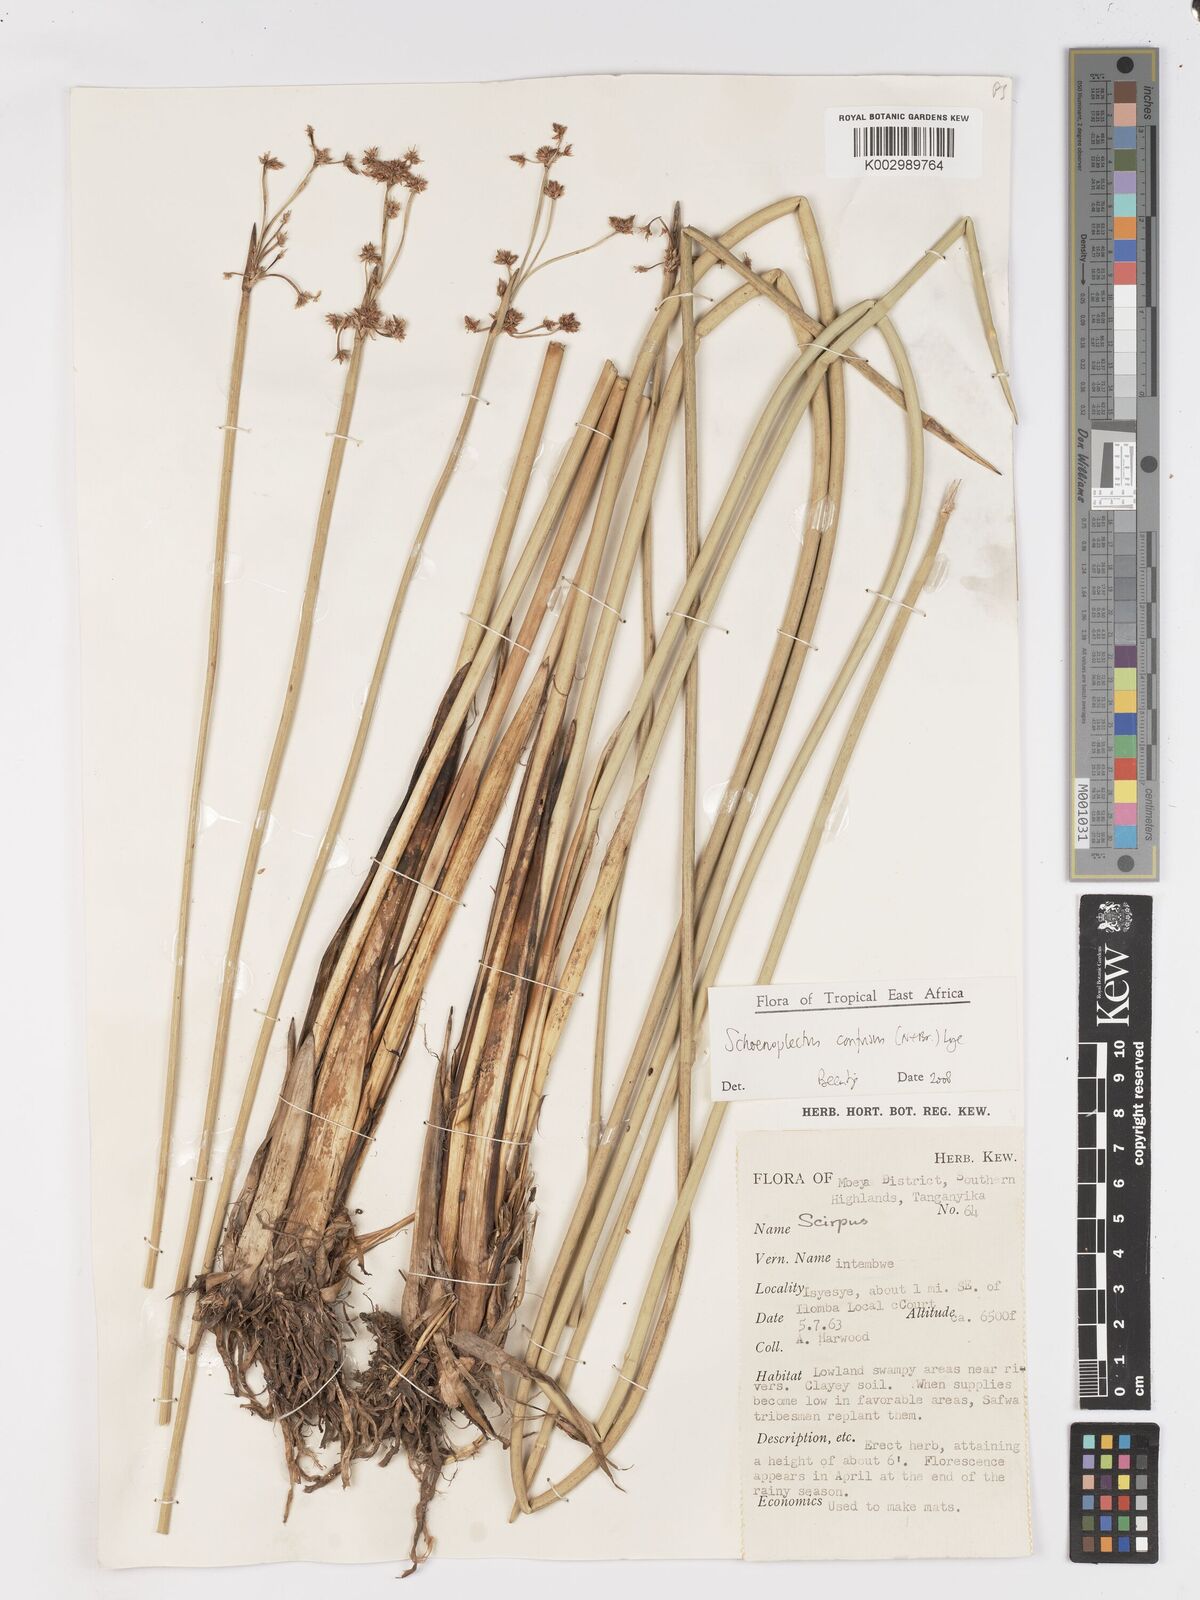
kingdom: Plantae
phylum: Tracheophyta
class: Liliopsida
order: Poales
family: Cyperaceae
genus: Schoenoplectiella
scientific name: Schoenoplectiella confusa
